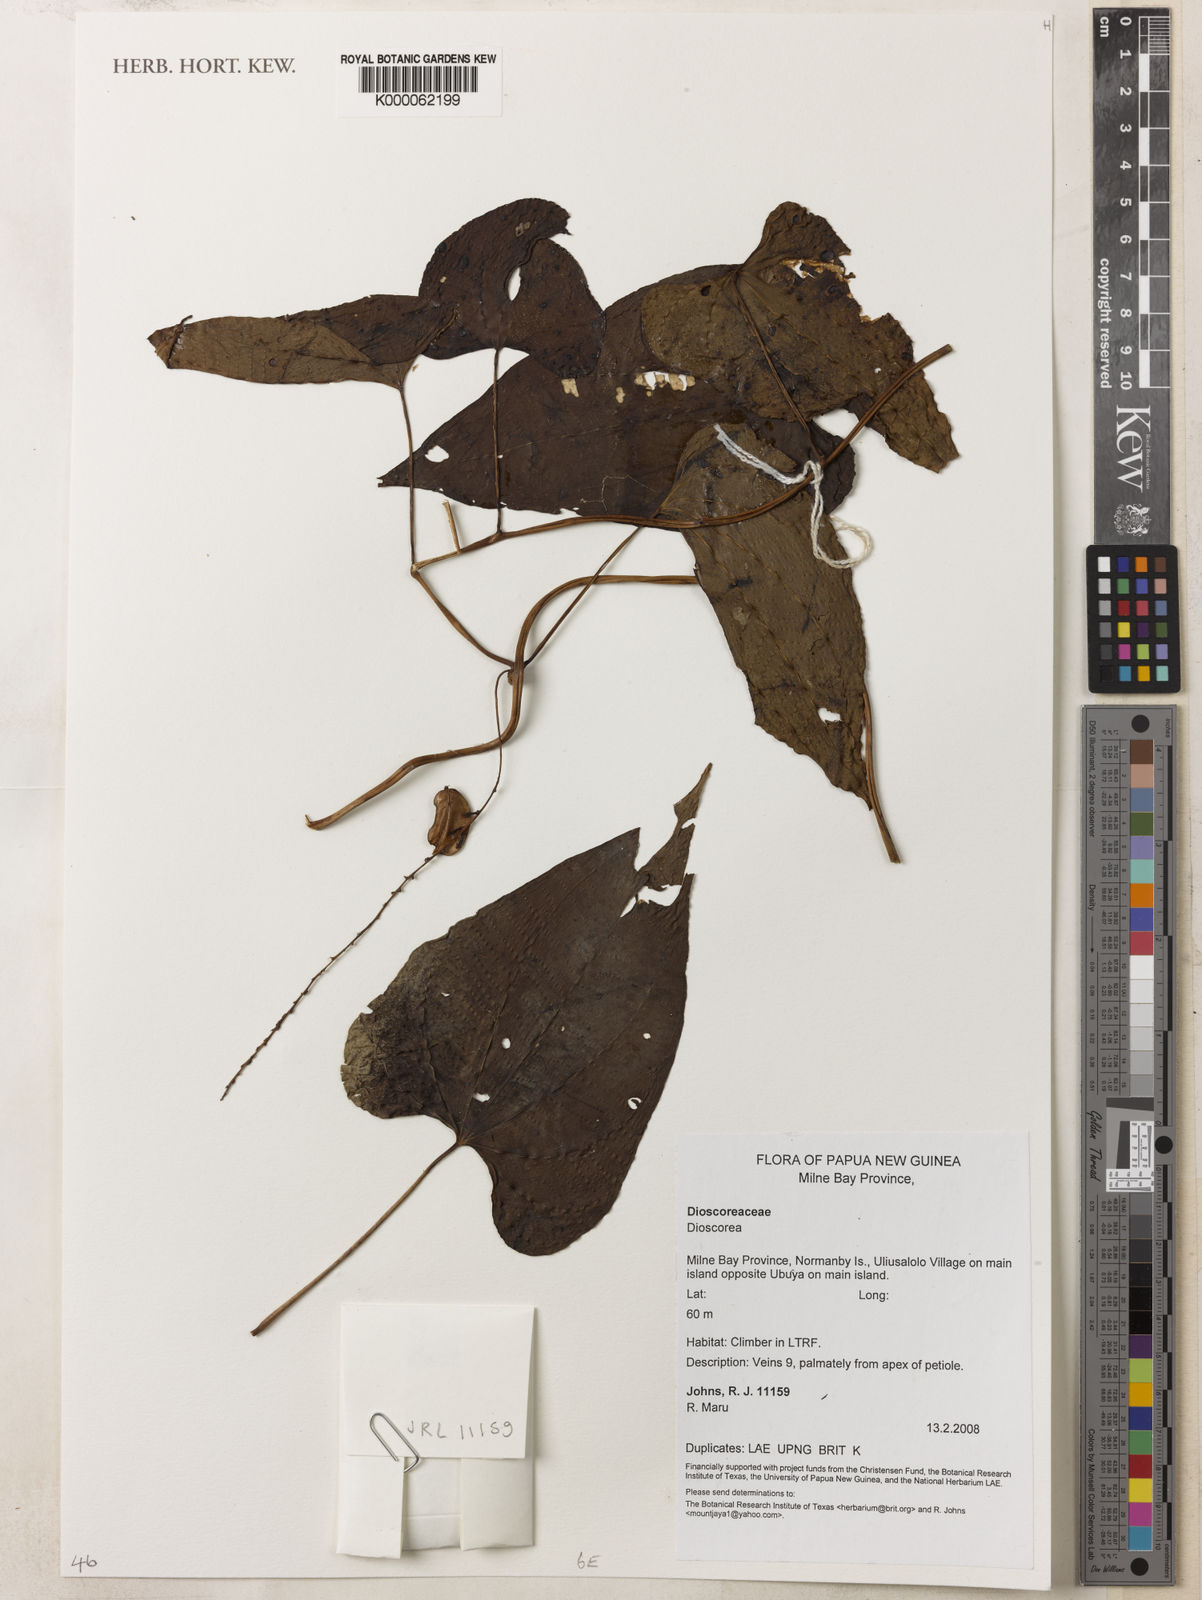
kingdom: Plantae
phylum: Tracheophyta
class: Liliopsida
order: Dioscoreales
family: Dioscoreaceae
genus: Dioscorea
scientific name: Dioscorea bulbifera
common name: Air yam
